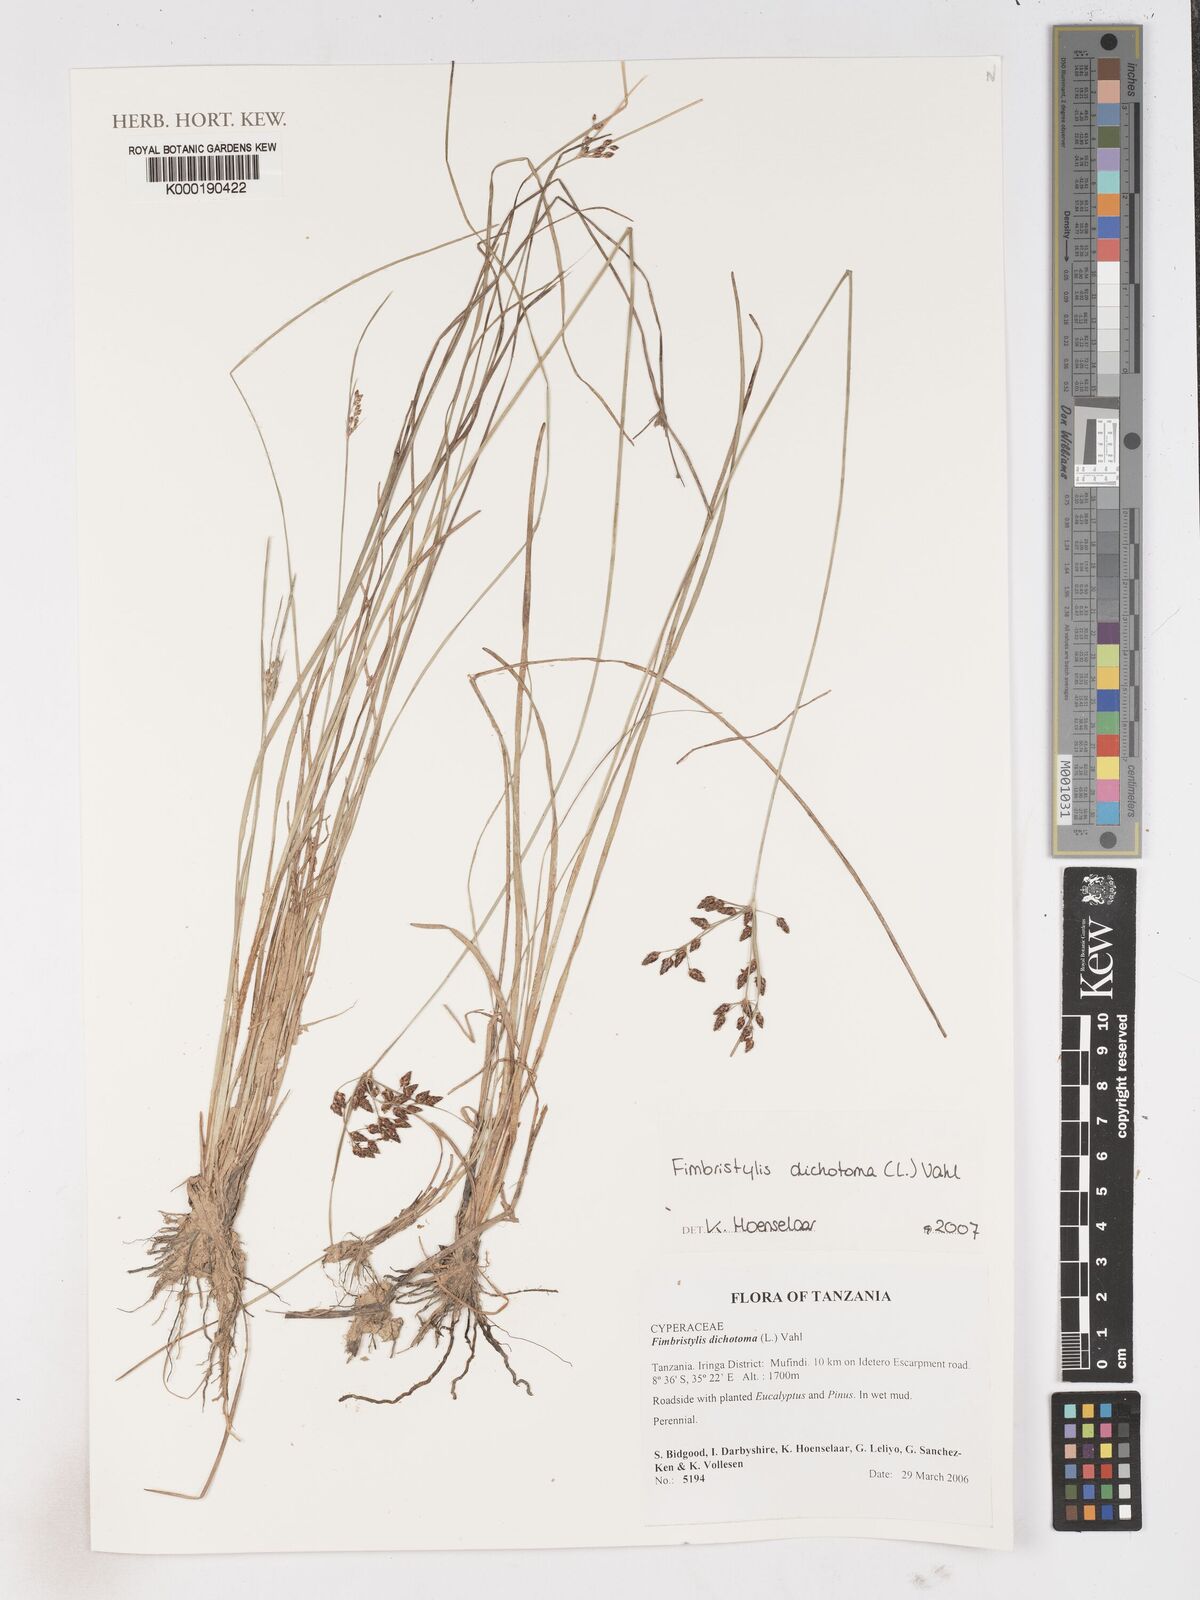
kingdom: Plantae
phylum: Tracheophyta
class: Liliopsida
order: Poales
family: Cyperaceae
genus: Fimbristylis
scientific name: Fimbristylis dichotoma
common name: Forked fimbry
